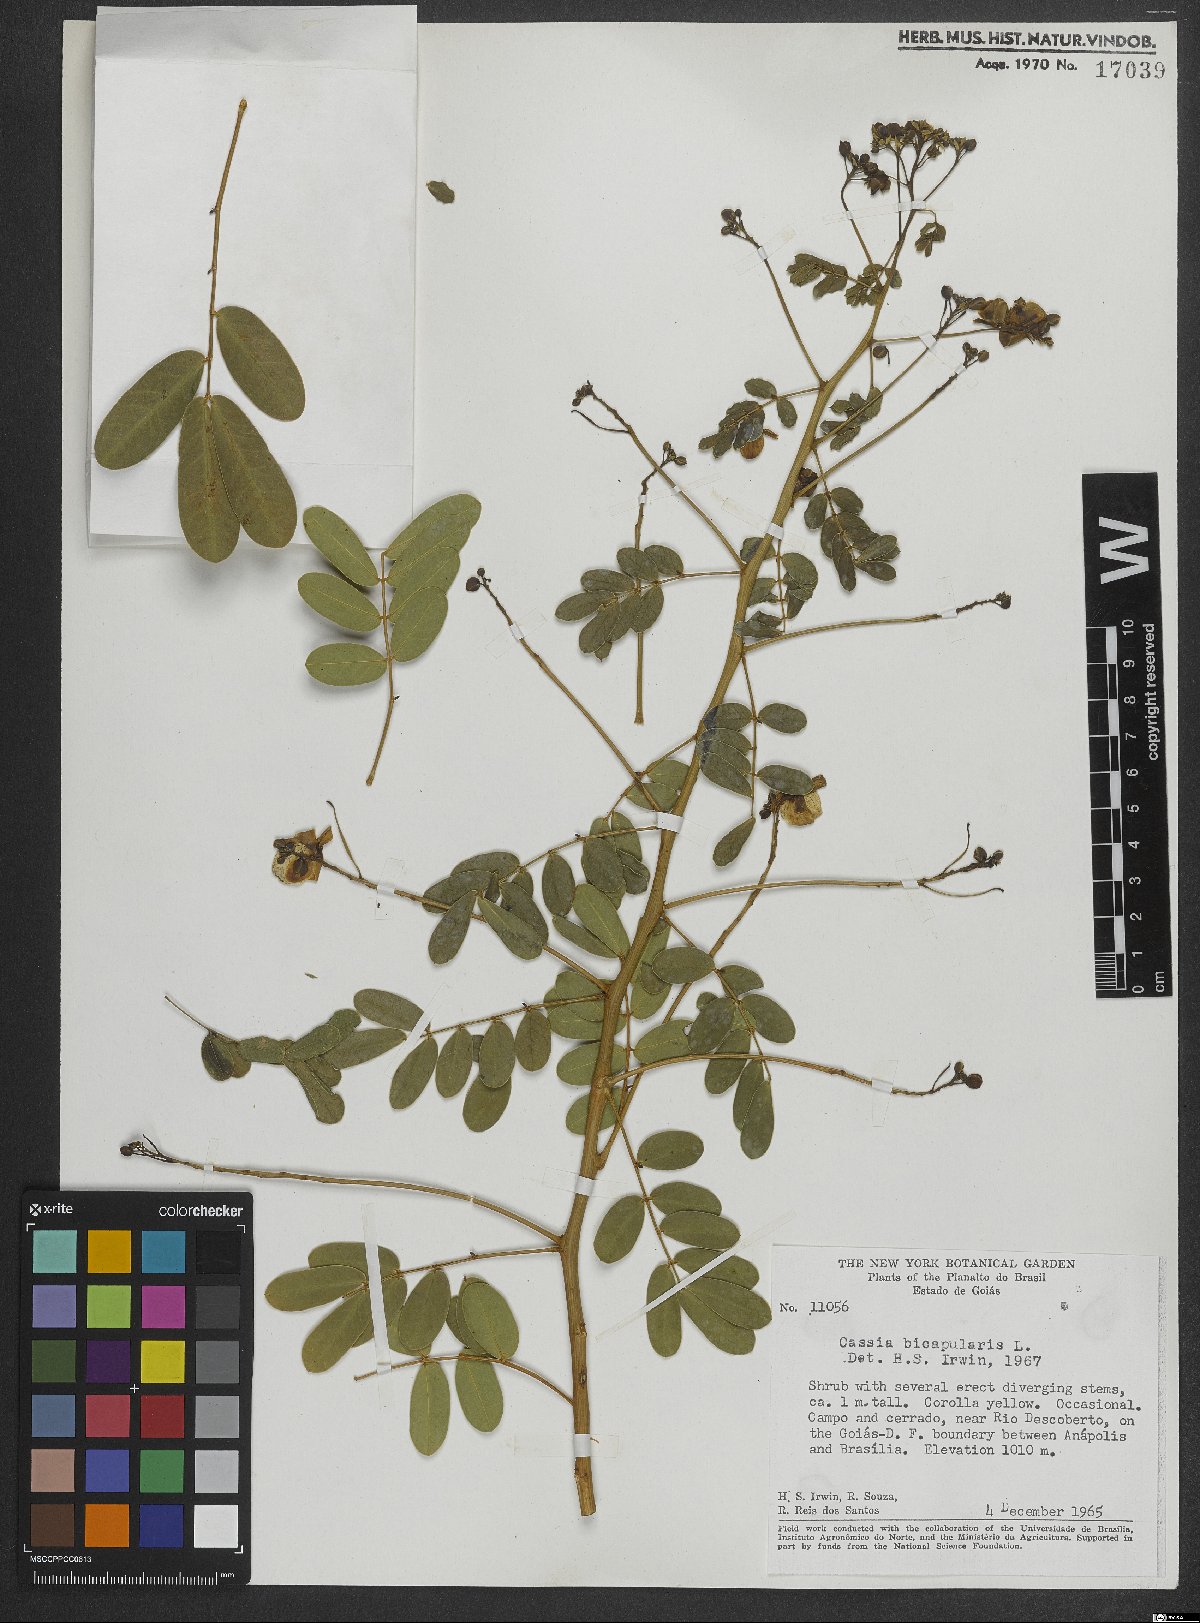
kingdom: Plantae
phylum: Tracheophyta
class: Magnoliopsida
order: Fabales
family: Fabaceae
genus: Senna
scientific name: Senna bicapsularis
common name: Christmasbush
